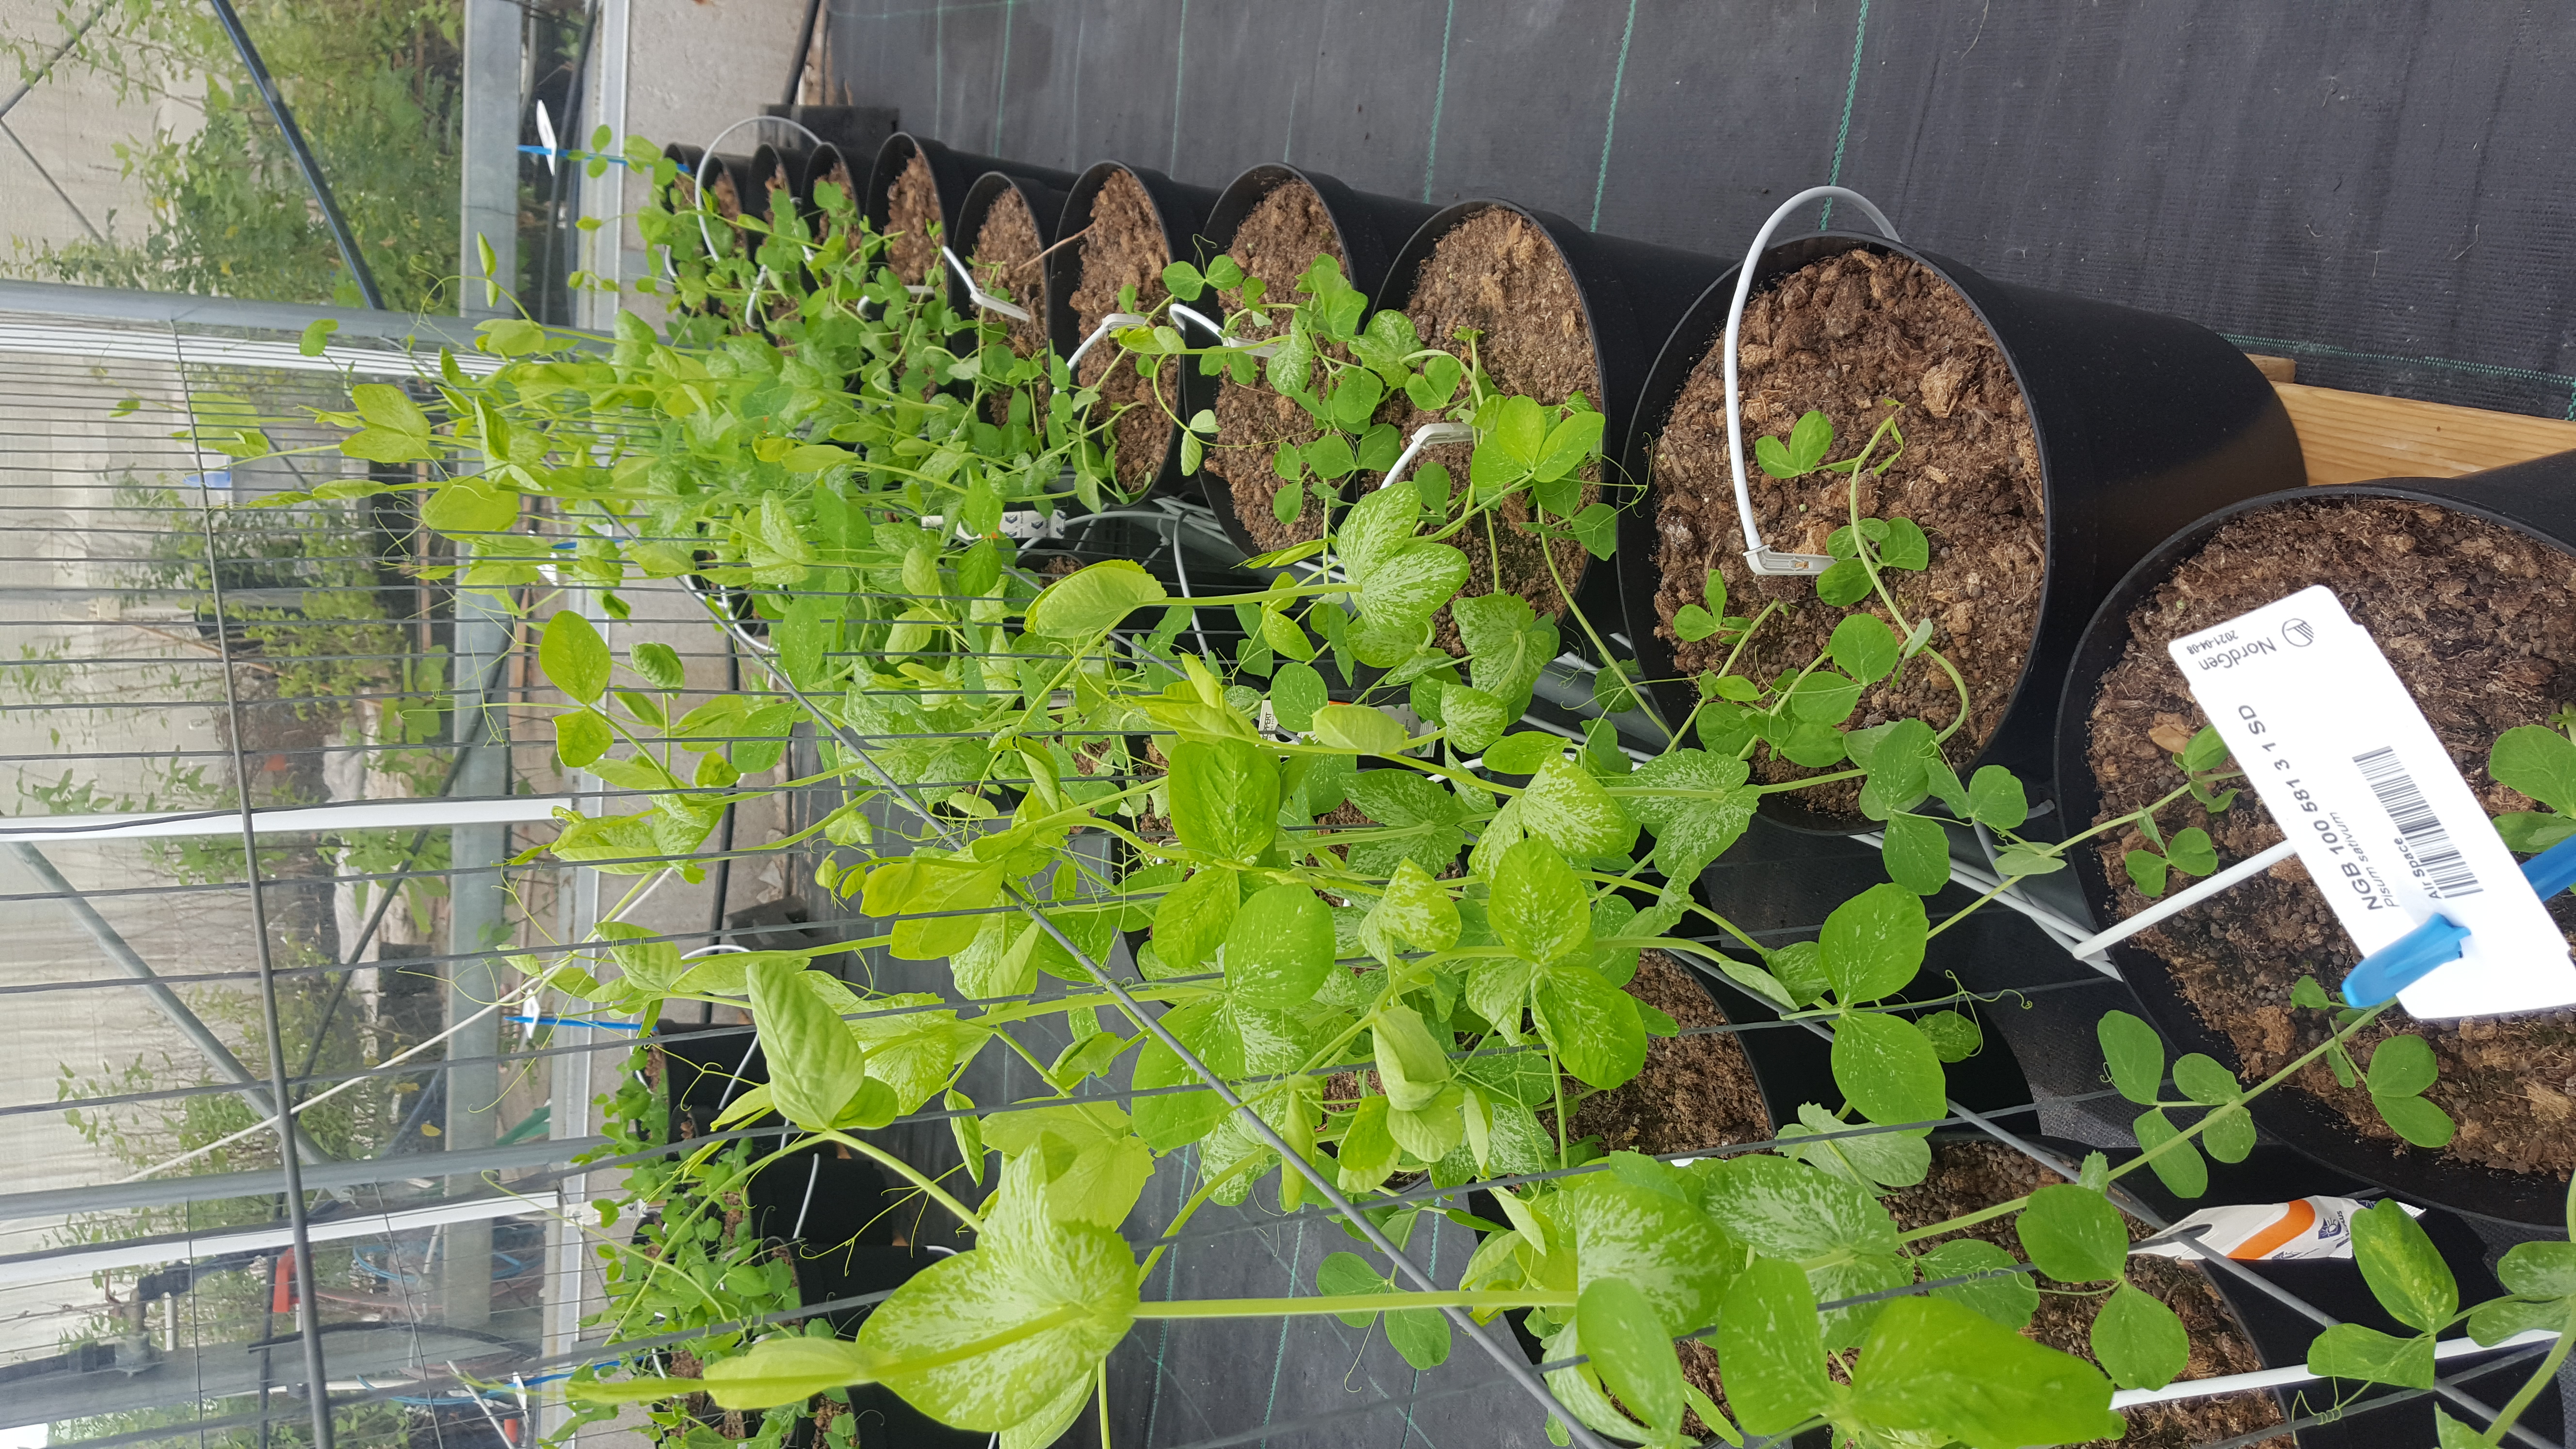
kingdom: Plantae
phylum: Tracheophyta
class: Magnoliopsida
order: Fabales
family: Fabaceae
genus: Lathyrus
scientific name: Lathyrus oleraceus
